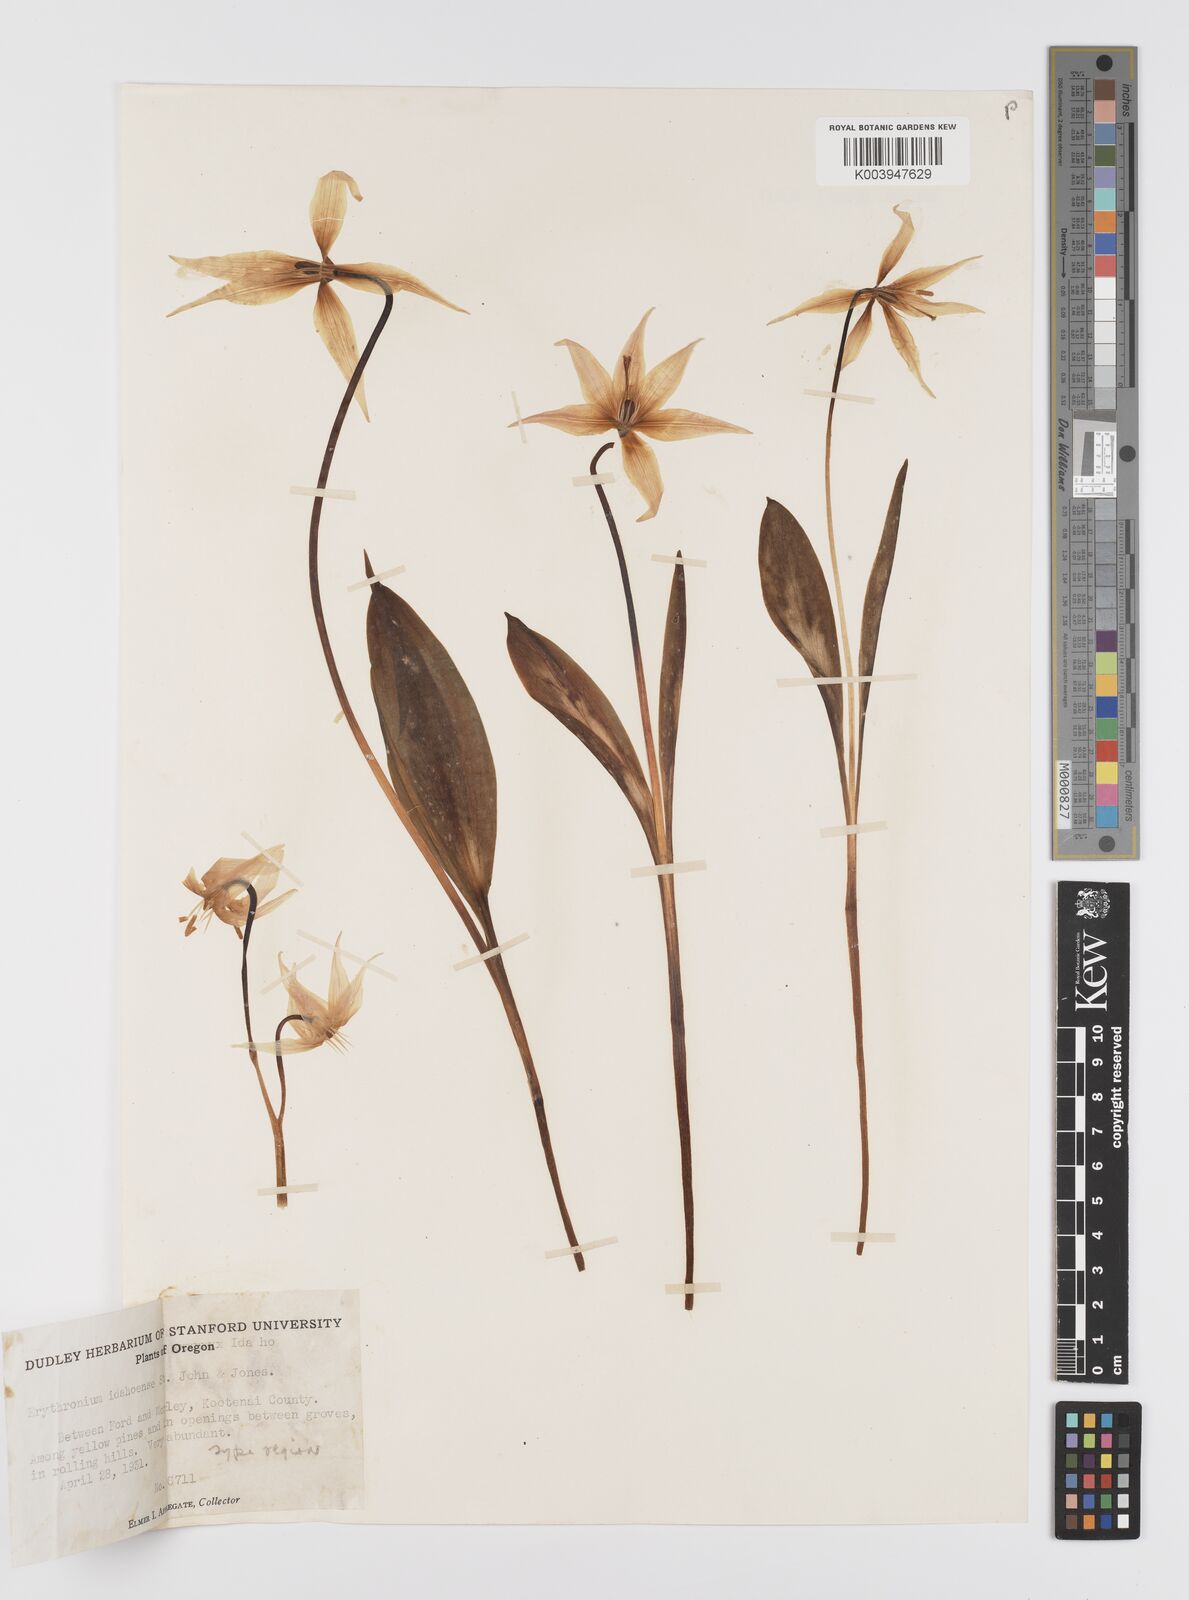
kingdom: Plantae
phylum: Tracheophyta
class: Liliopsida
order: Liliales
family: Liliaceae
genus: Erythronium
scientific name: Erythronium idahoense
